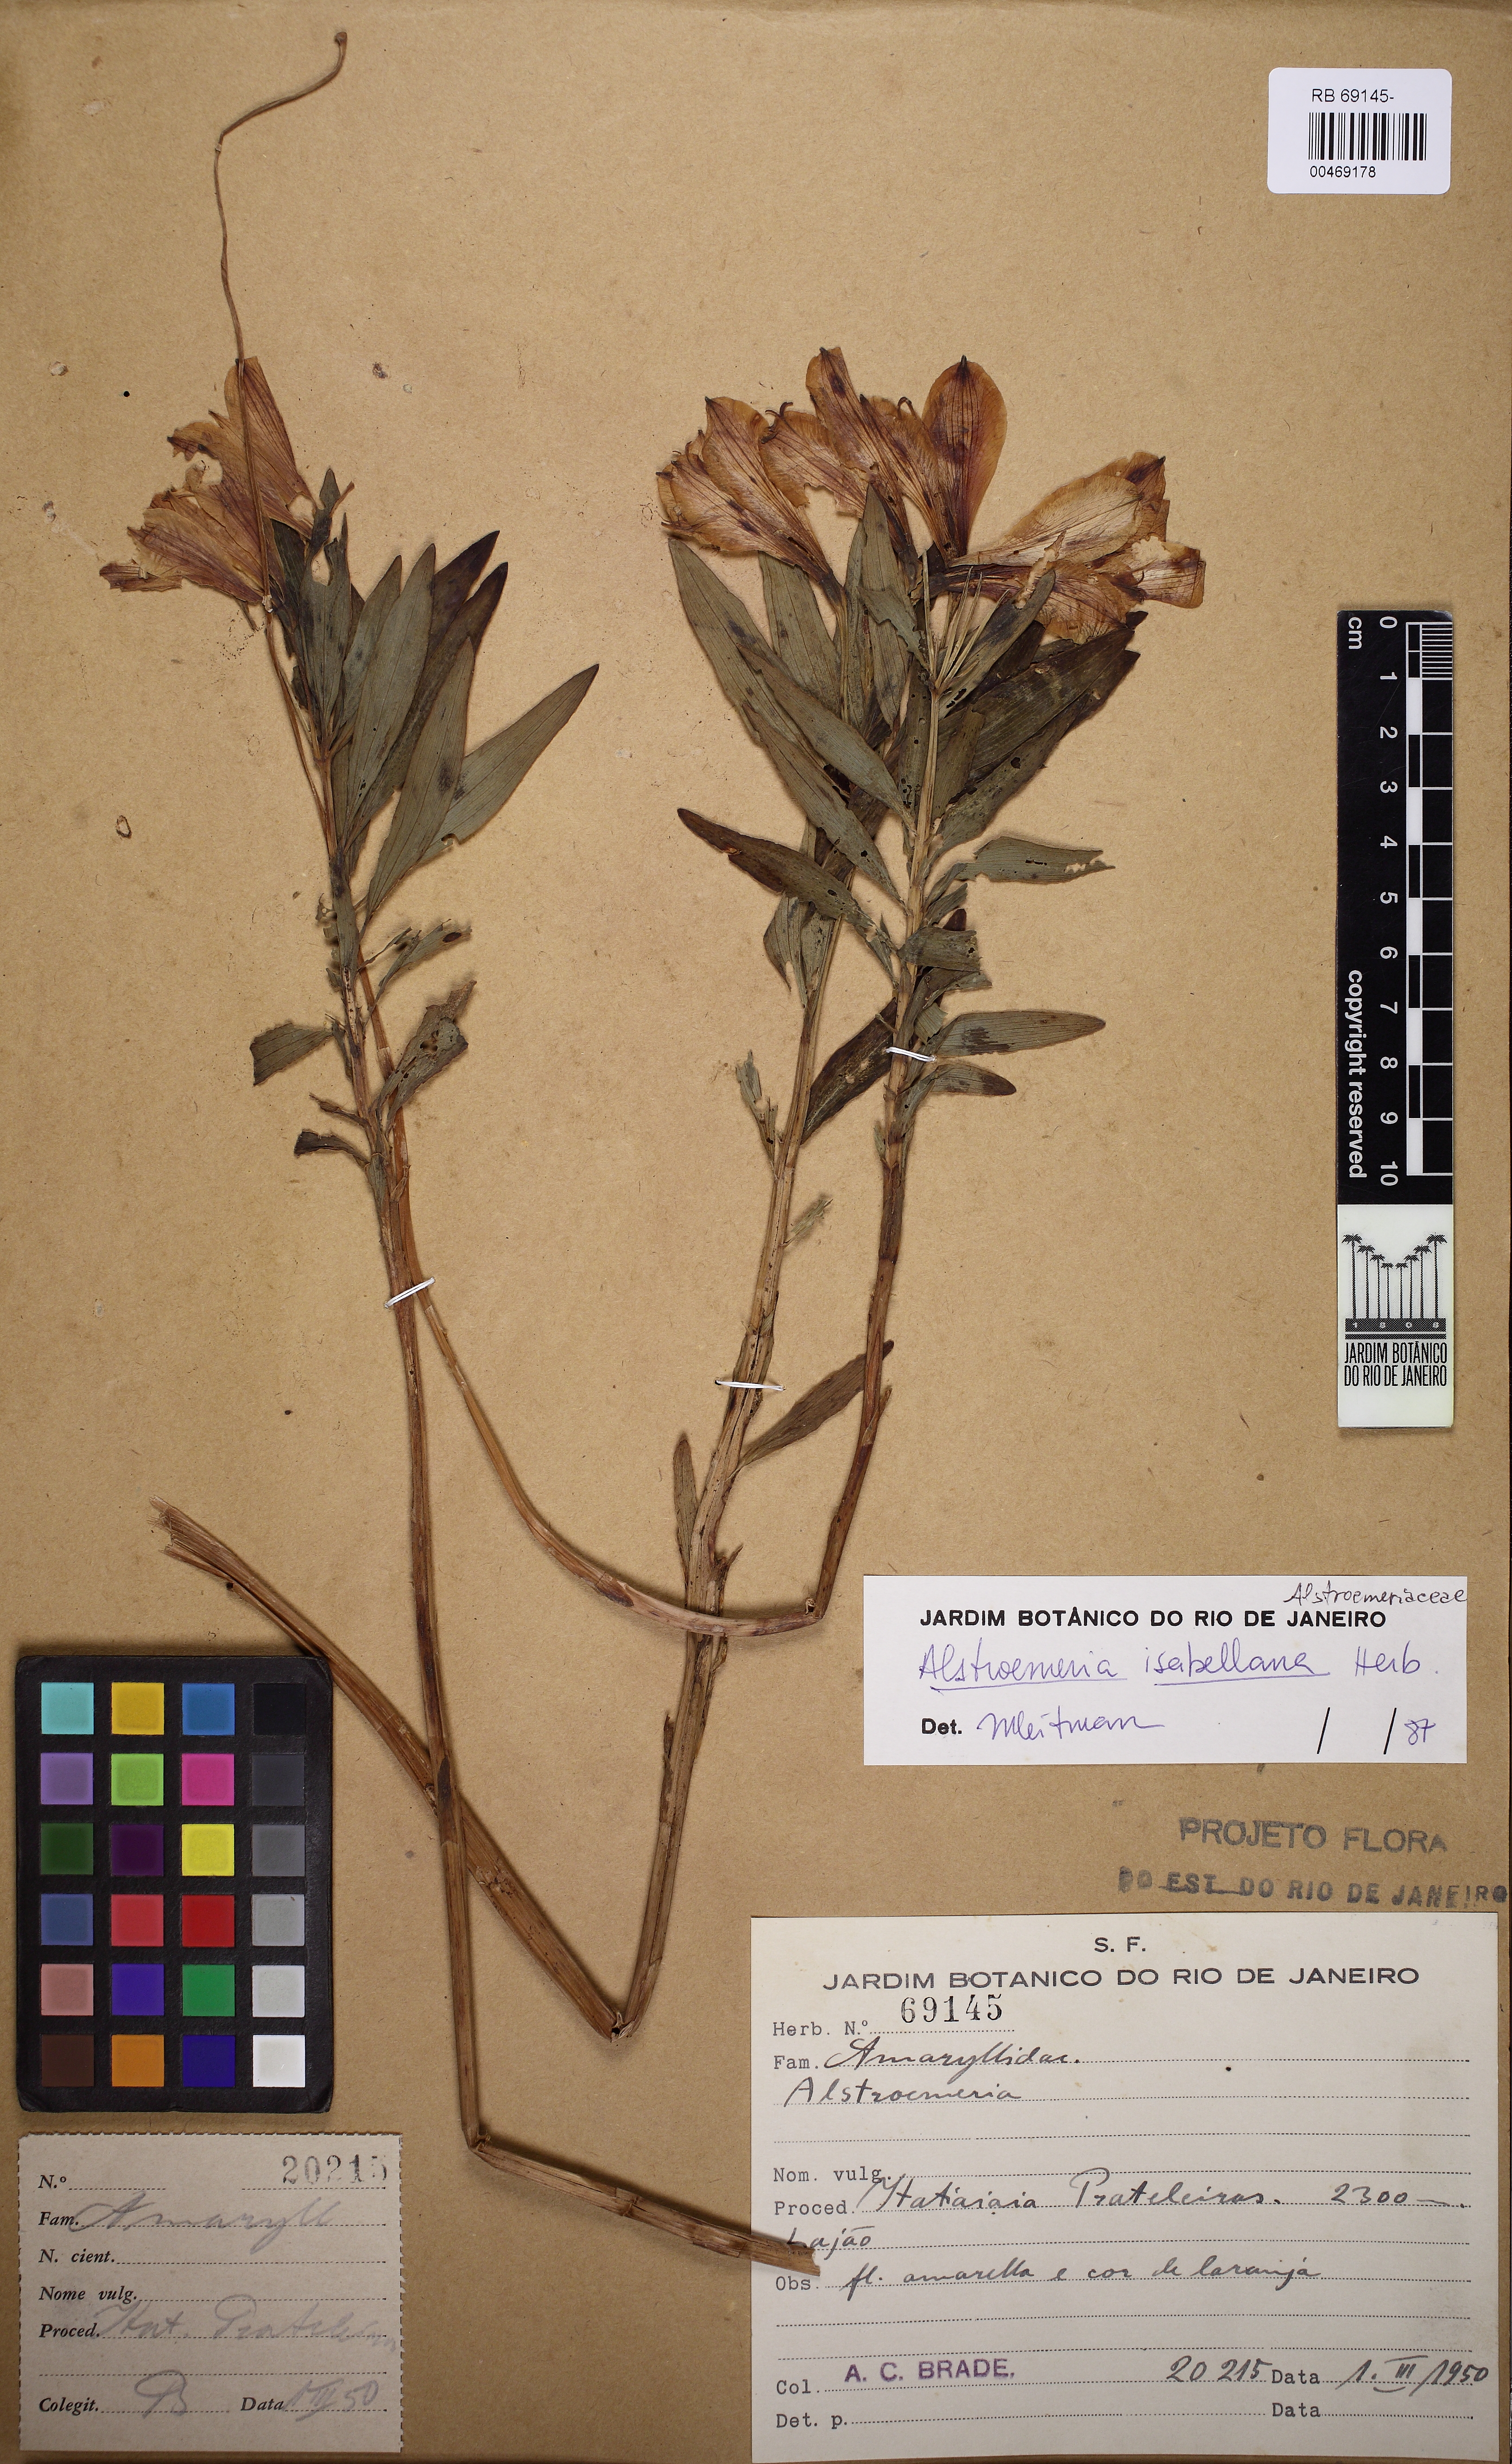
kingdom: Plantae
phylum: Tracheophyta
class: Liliopsida
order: Liliales
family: Alstroemeriaceae
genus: Alstroemeria
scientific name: Alstroemeria isabelleana
